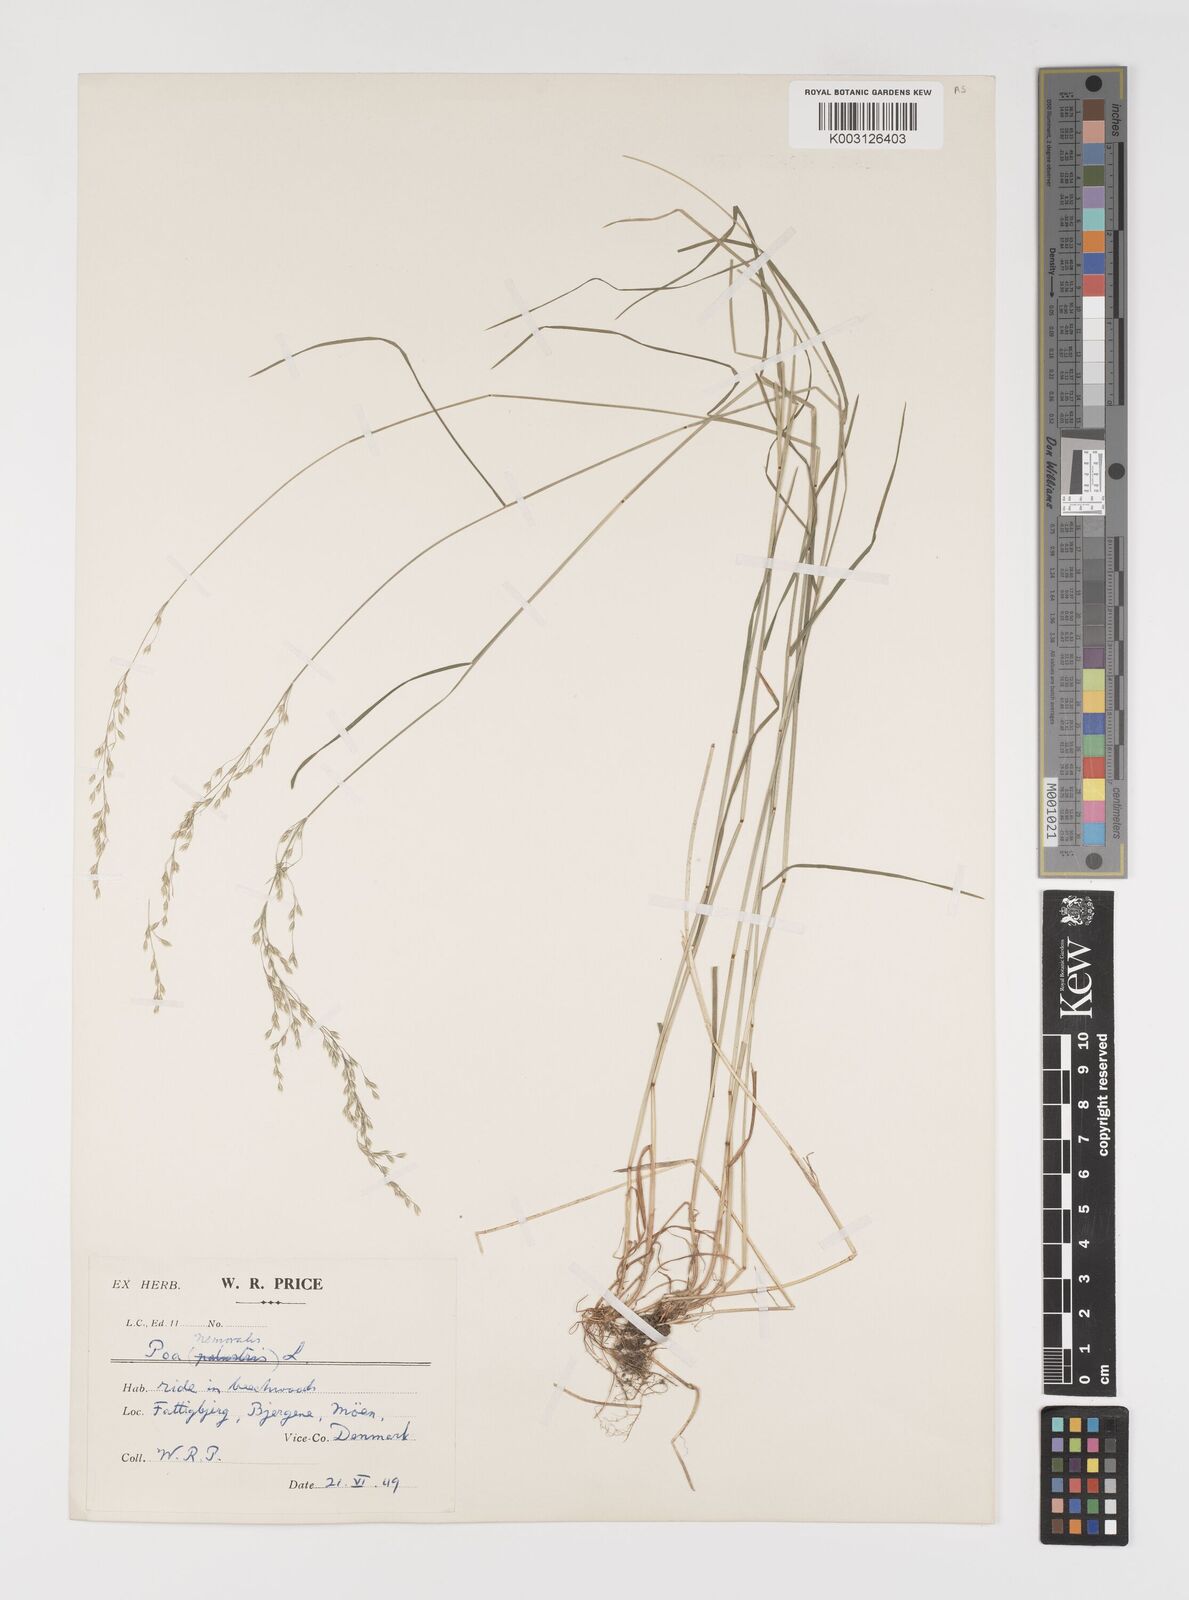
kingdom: Plantae
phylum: Tracheophyta
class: Liliopsida
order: Poales
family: Poaceae
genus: Poa
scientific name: Poa nemoralis
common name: Wood bluegrass
